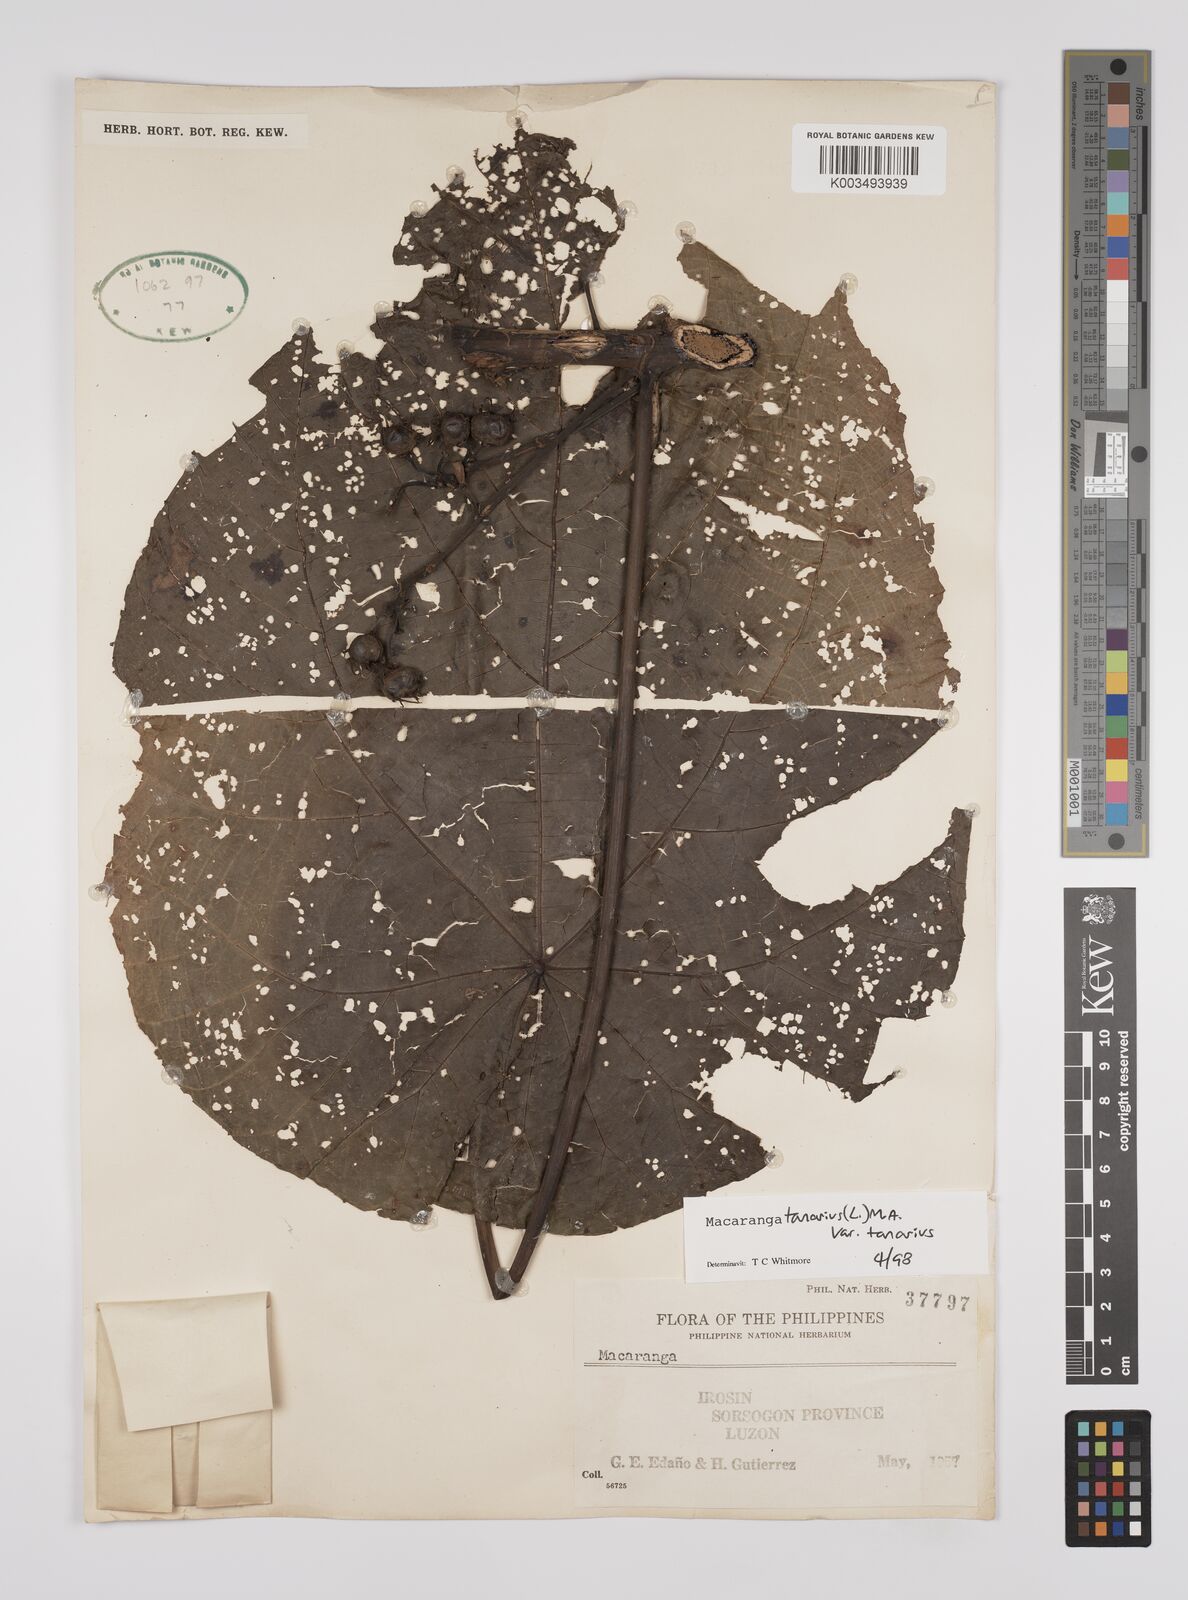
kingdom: Plantae
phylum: Tracheophyta
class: Magnoliopsida
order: Malpighiales
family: Euphorbiaceae
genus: Macaranga
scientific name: Macaranga tanarius
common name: Parasol leaf tree
